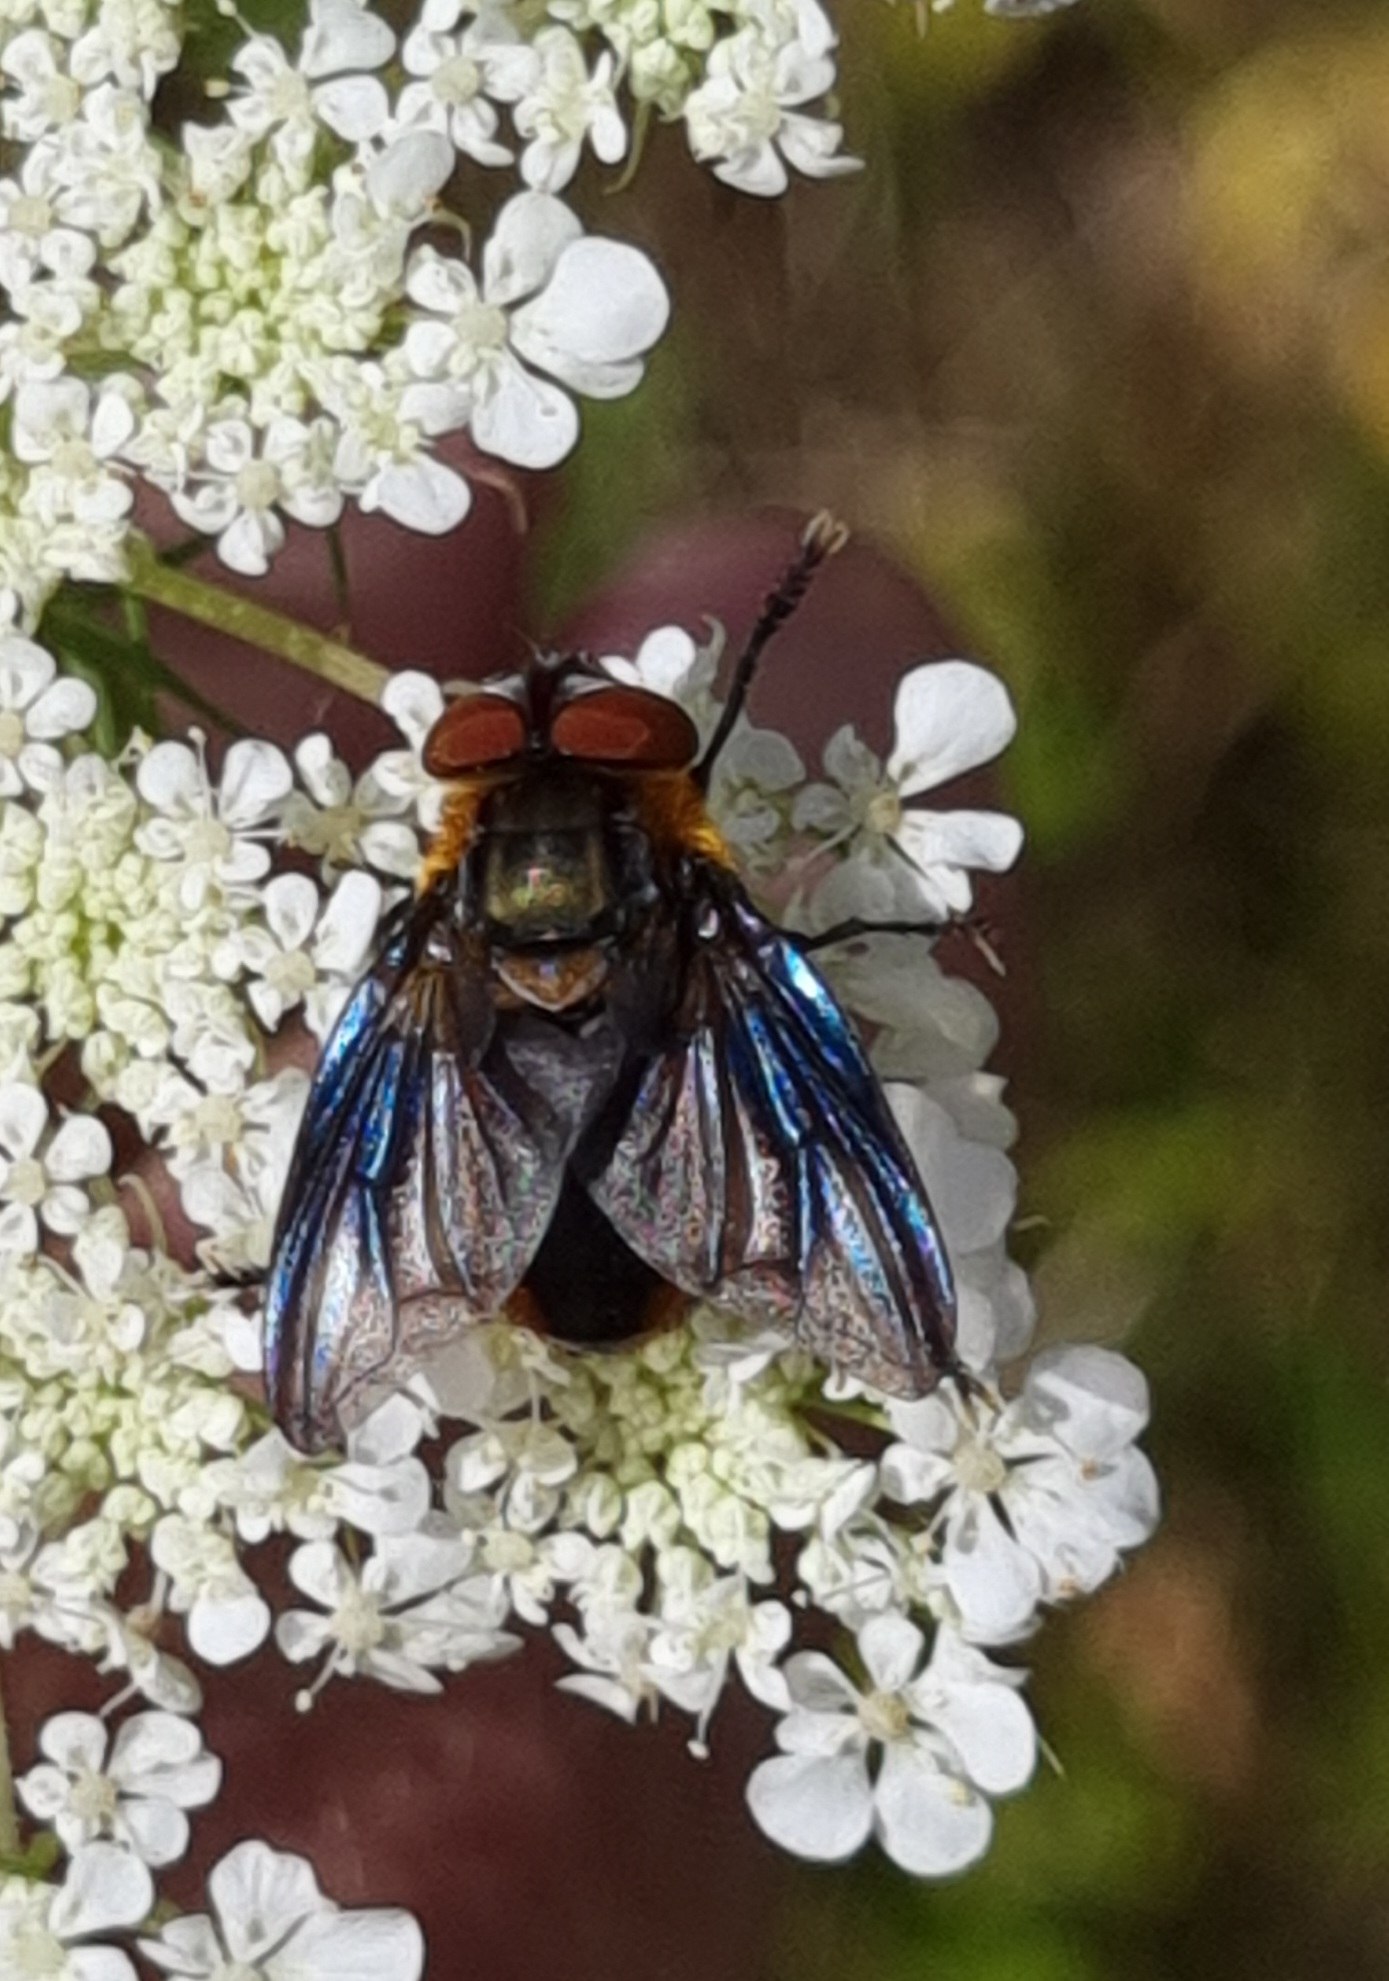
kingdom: Animalia
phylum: Arthropoda
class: Insecta
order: Diptera
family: Tachinidae
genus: Phasia
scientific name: Phasia hemiptera
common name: Blåvinget pragtsnylteflue
